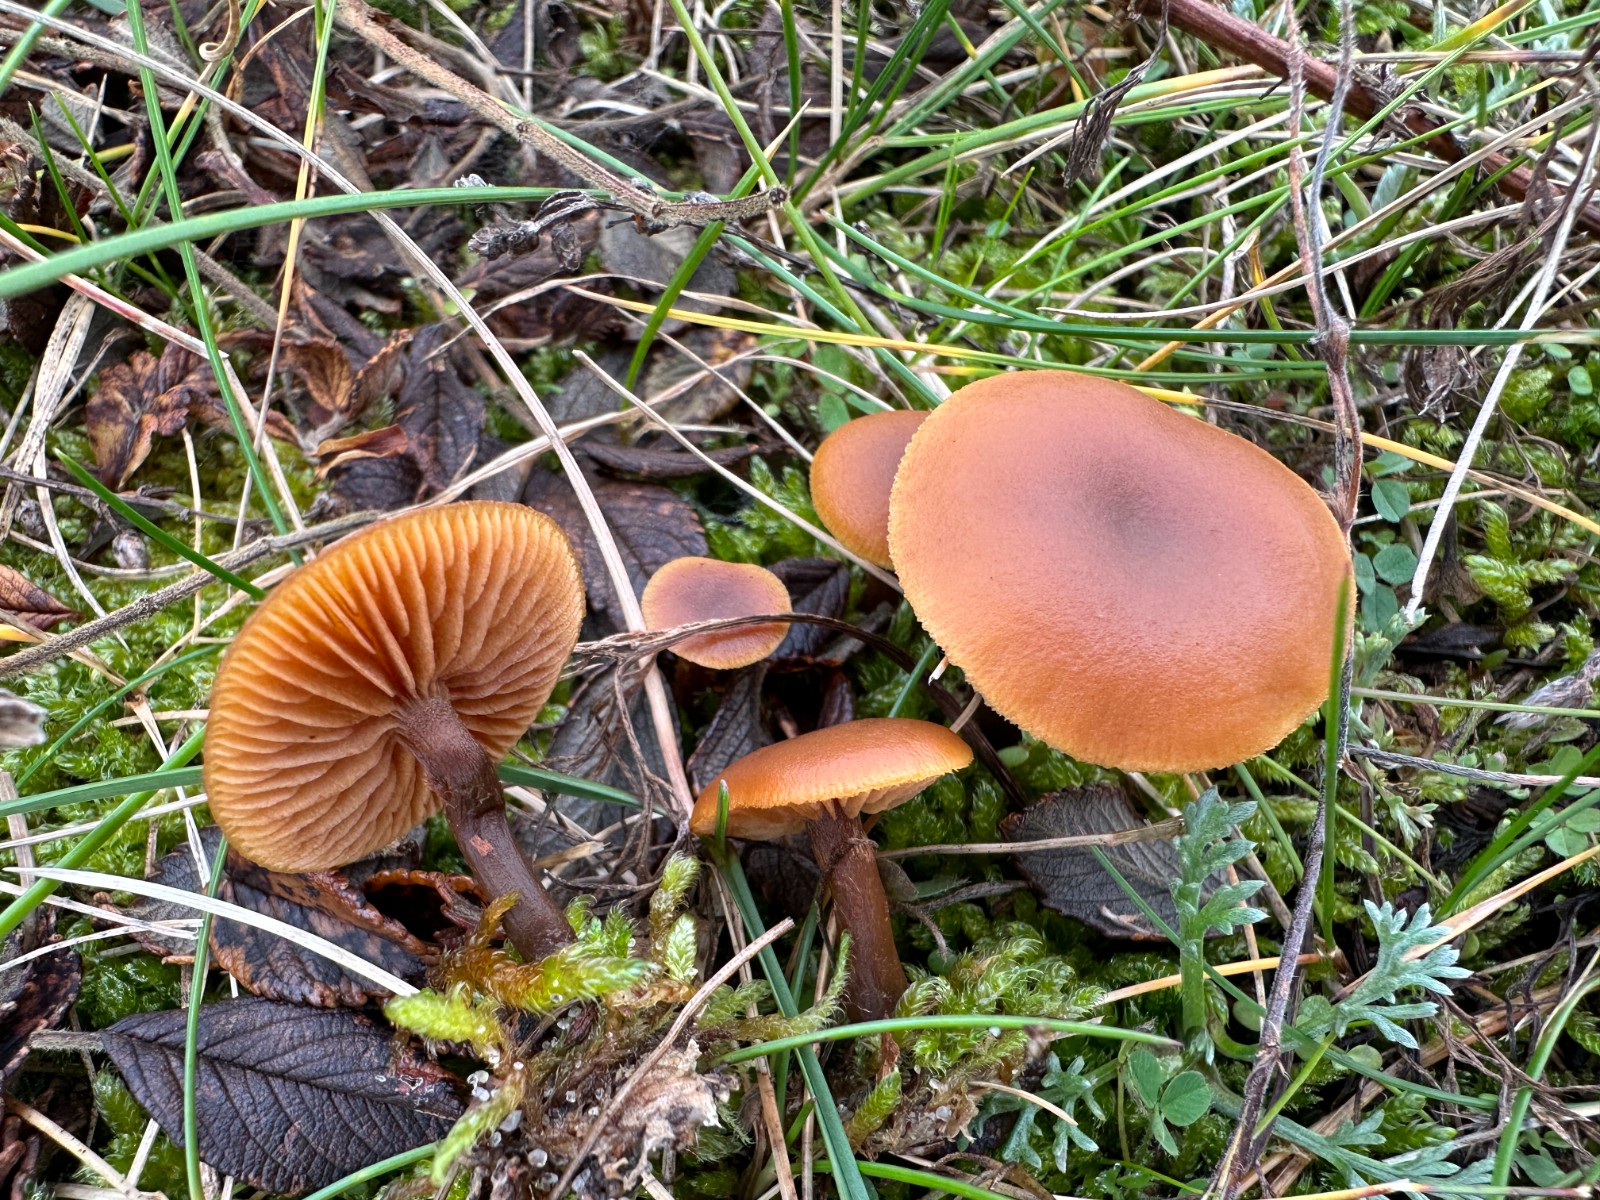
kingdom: Fungi
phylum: Basidiomycota
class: Agaricomycetes
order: Agaricales
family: Hymenogastraceae
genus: Galerina
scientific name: Galerina esteve-raventosii
